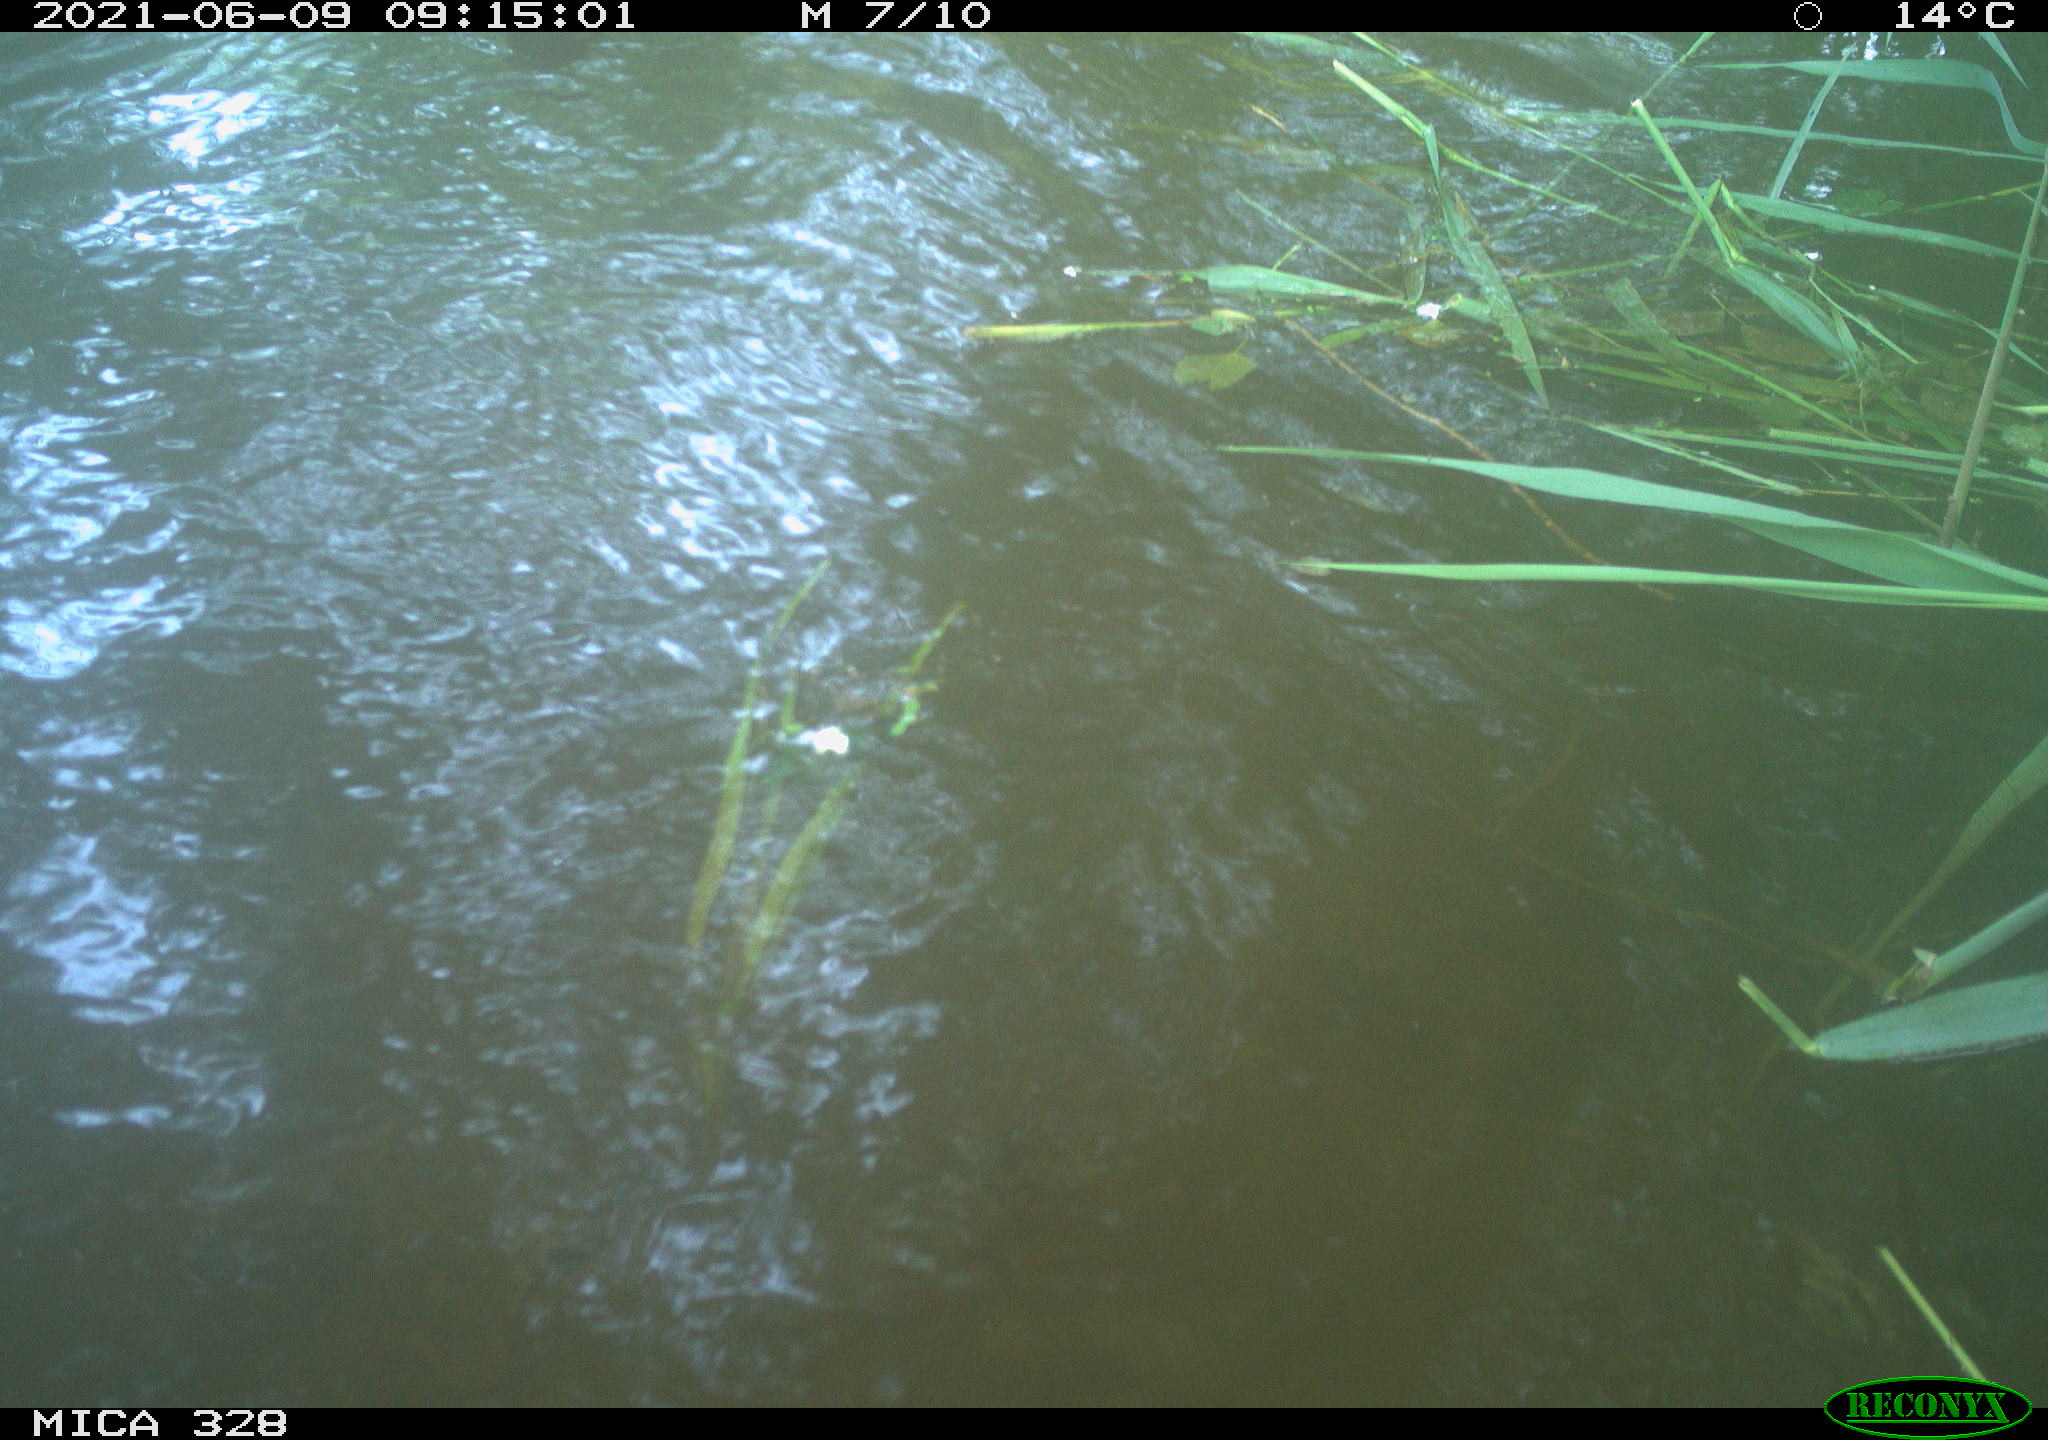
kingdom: Animalia
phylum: Chordata
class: Aves
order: Anseriformes
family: Anatidae
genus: Aix
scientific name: Aix galericulata
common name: Mandarin duck
